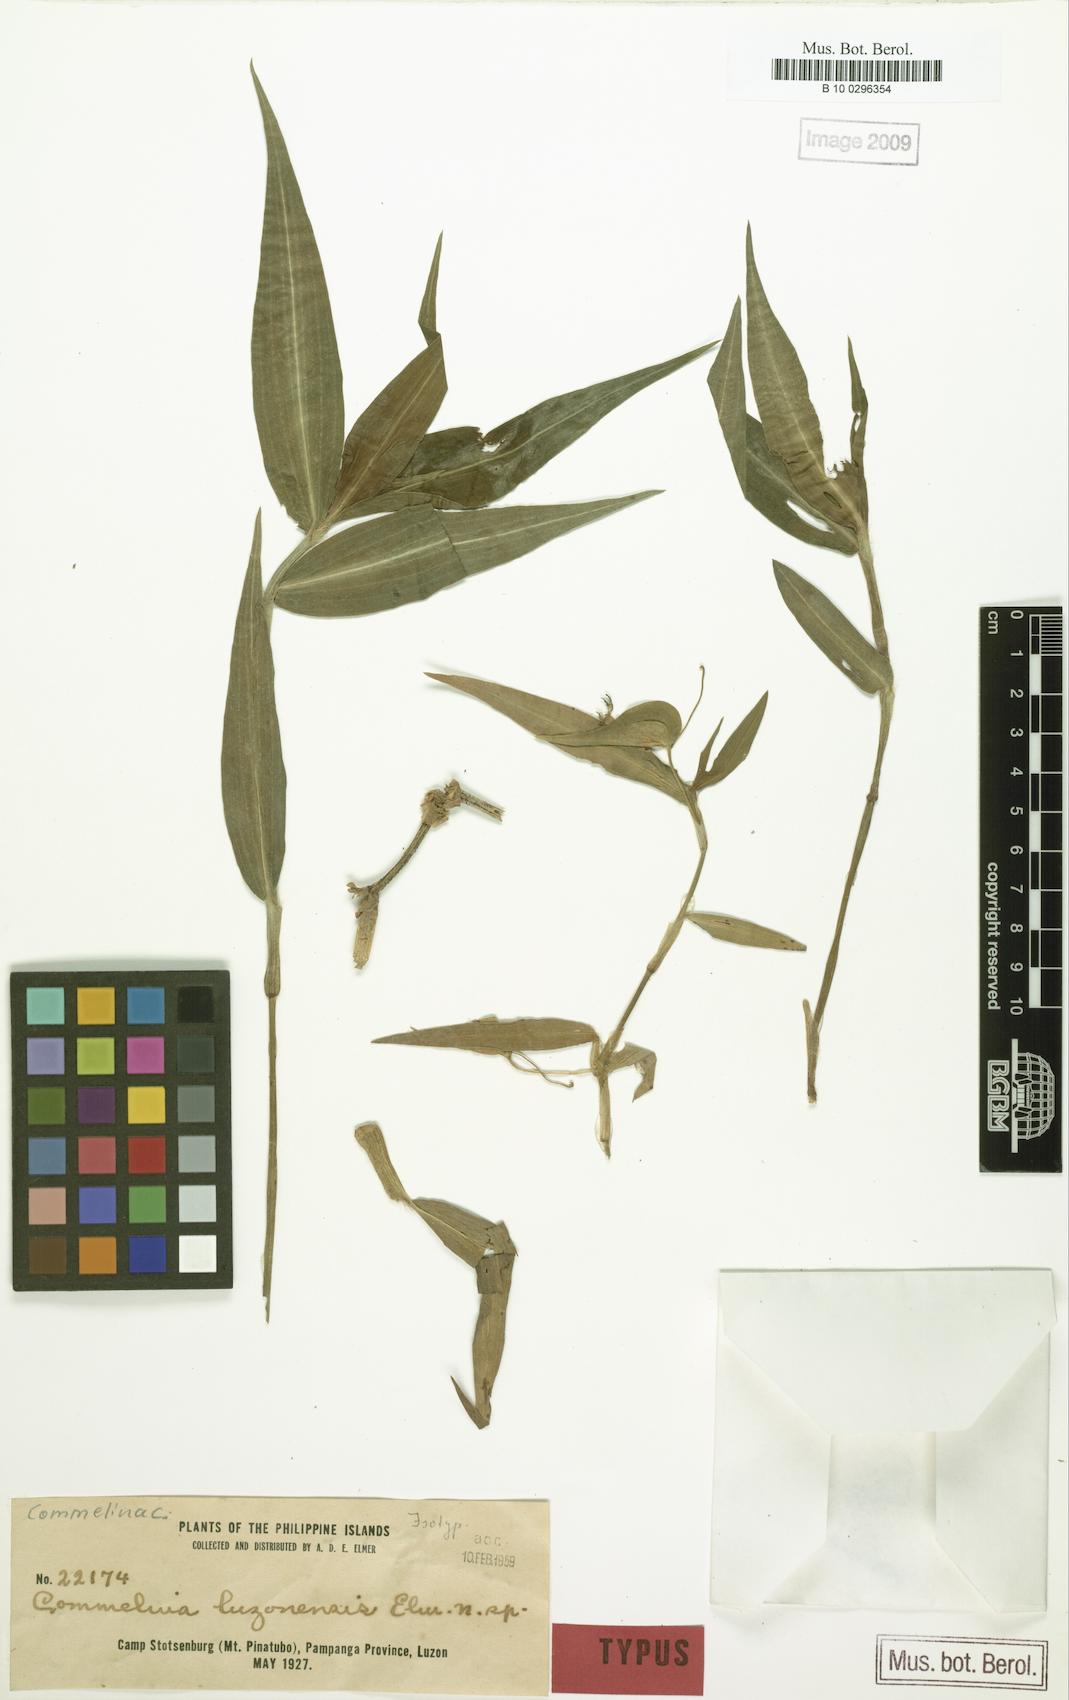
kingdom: Plantae
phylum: Tracheophyta
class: Liliopsida
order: Commelinales
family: Commelinaceae
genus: Commelina
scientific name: Commelina luzonensis
